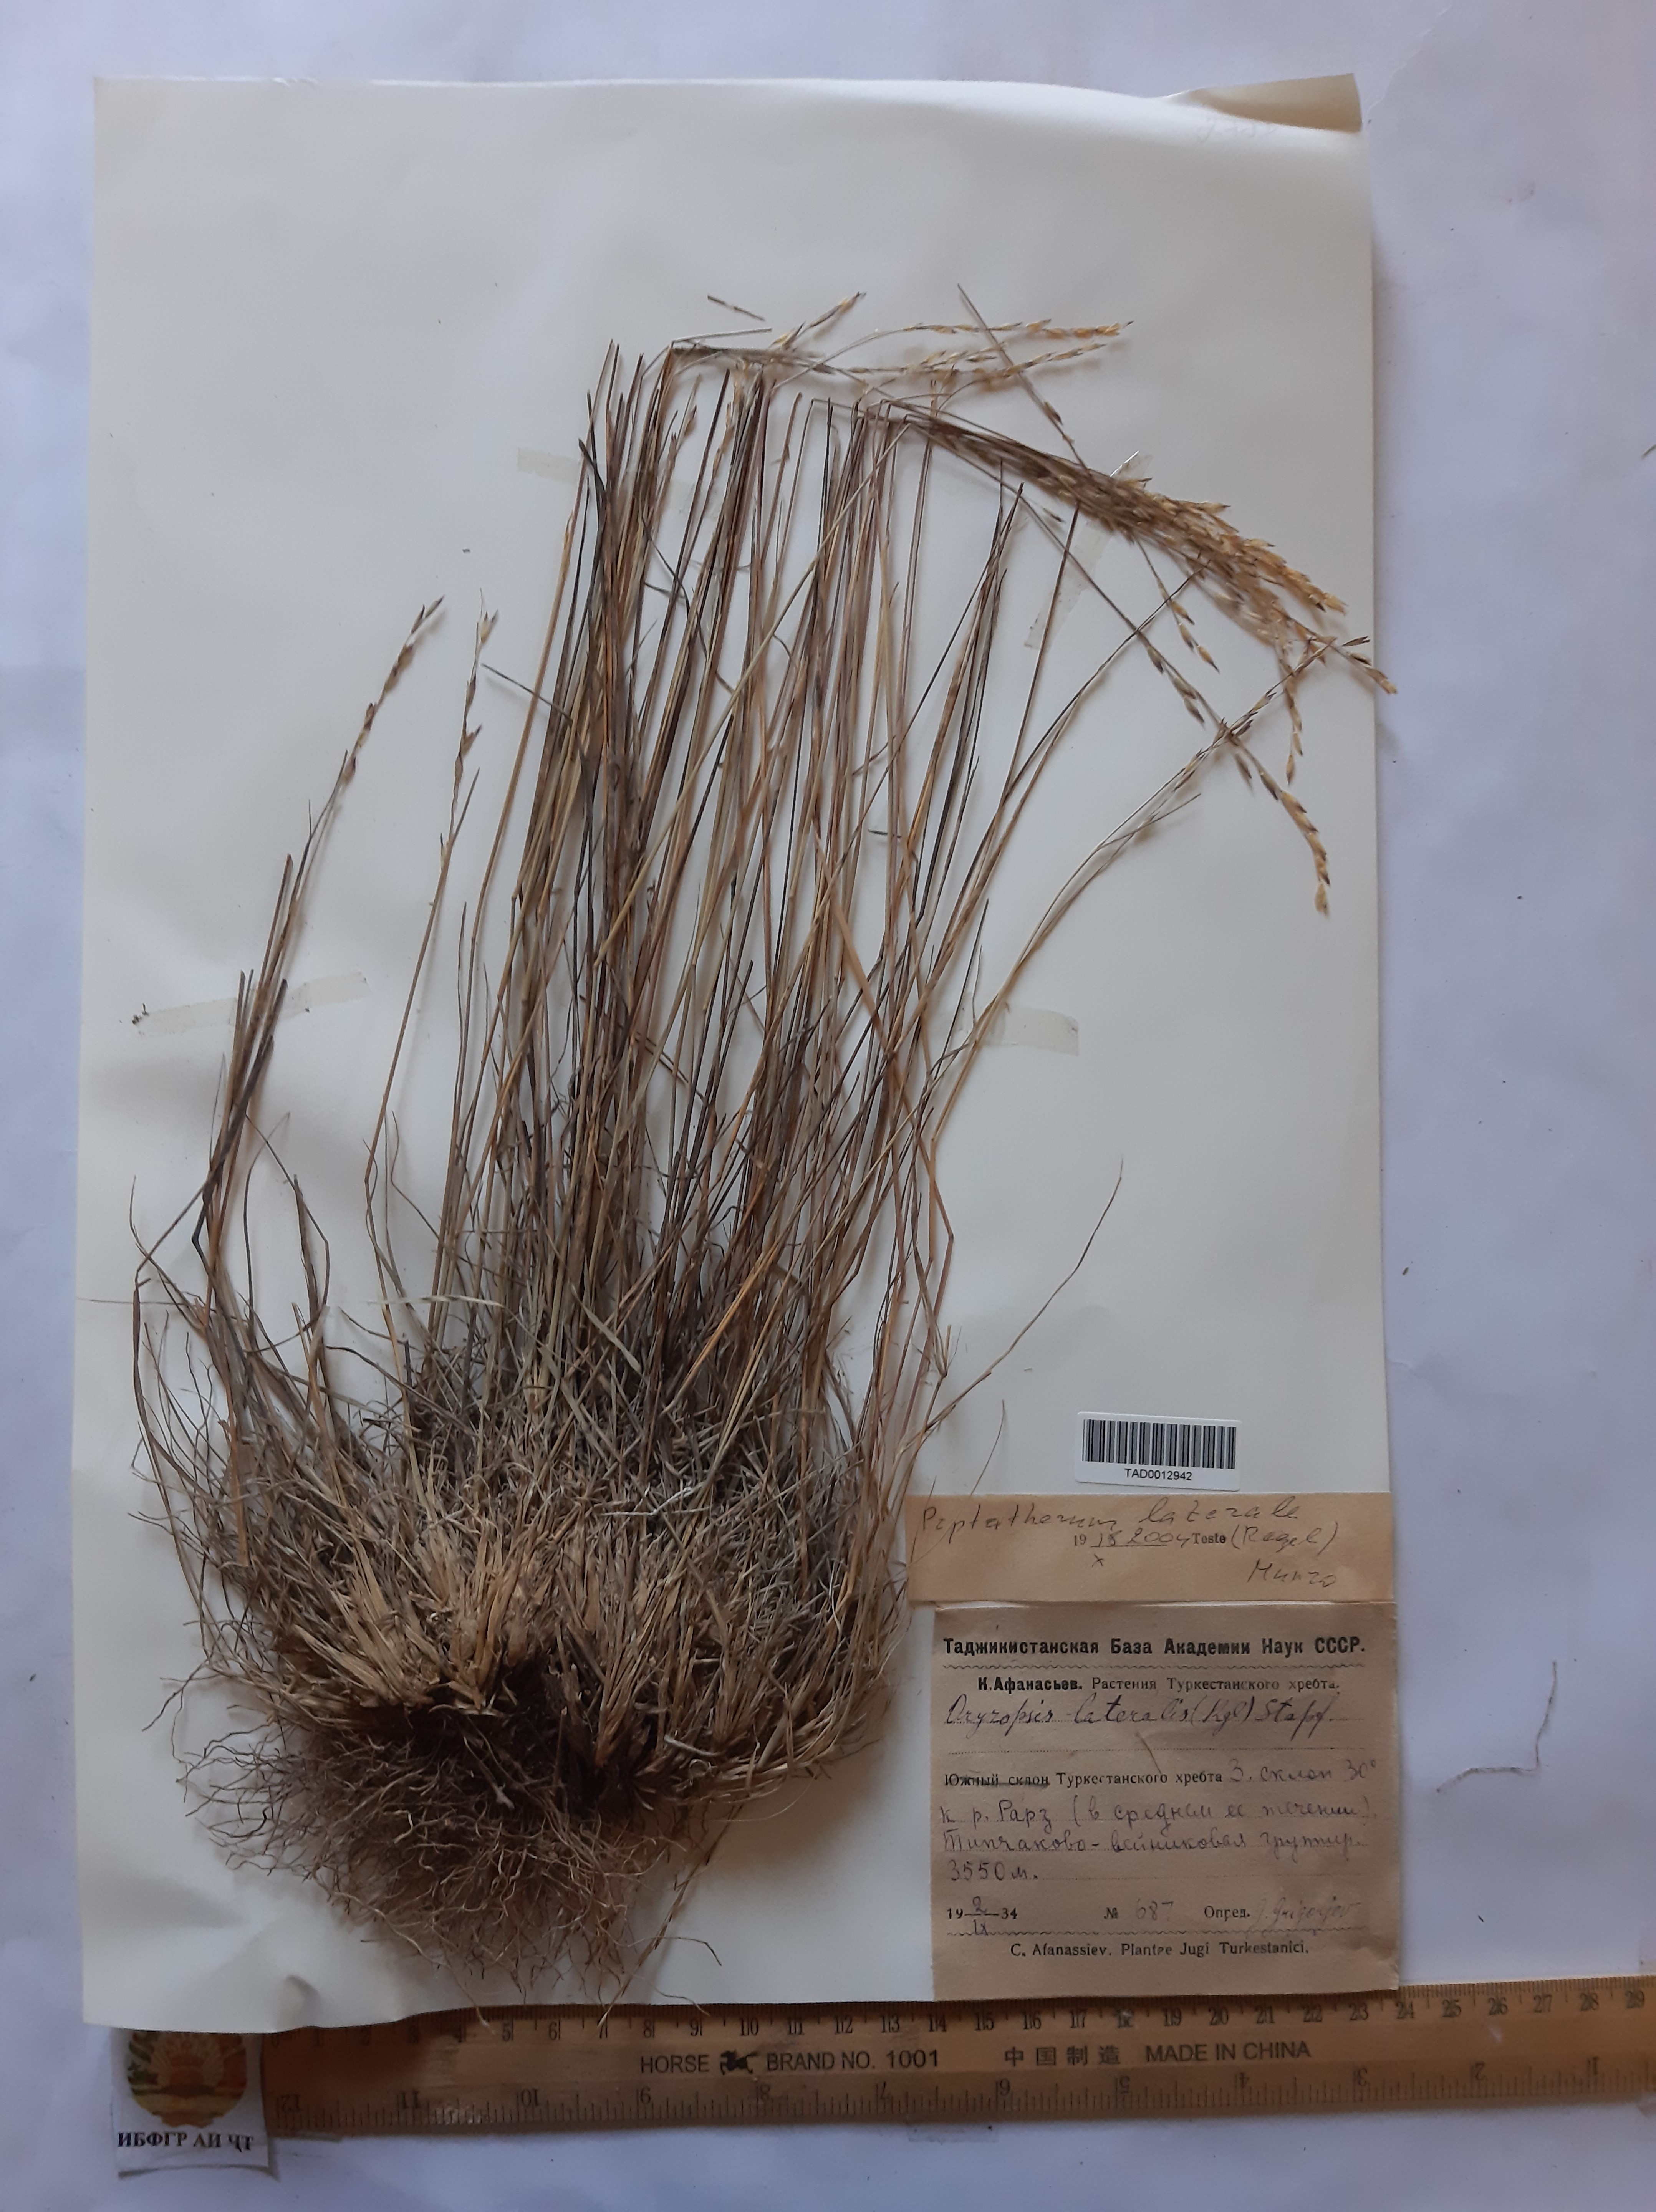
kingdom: Plantae
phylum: Tracheophyta
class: Liliopsida
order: Poales
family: Poaceae
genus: Piptatherum
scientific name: Piptatherum laterale
